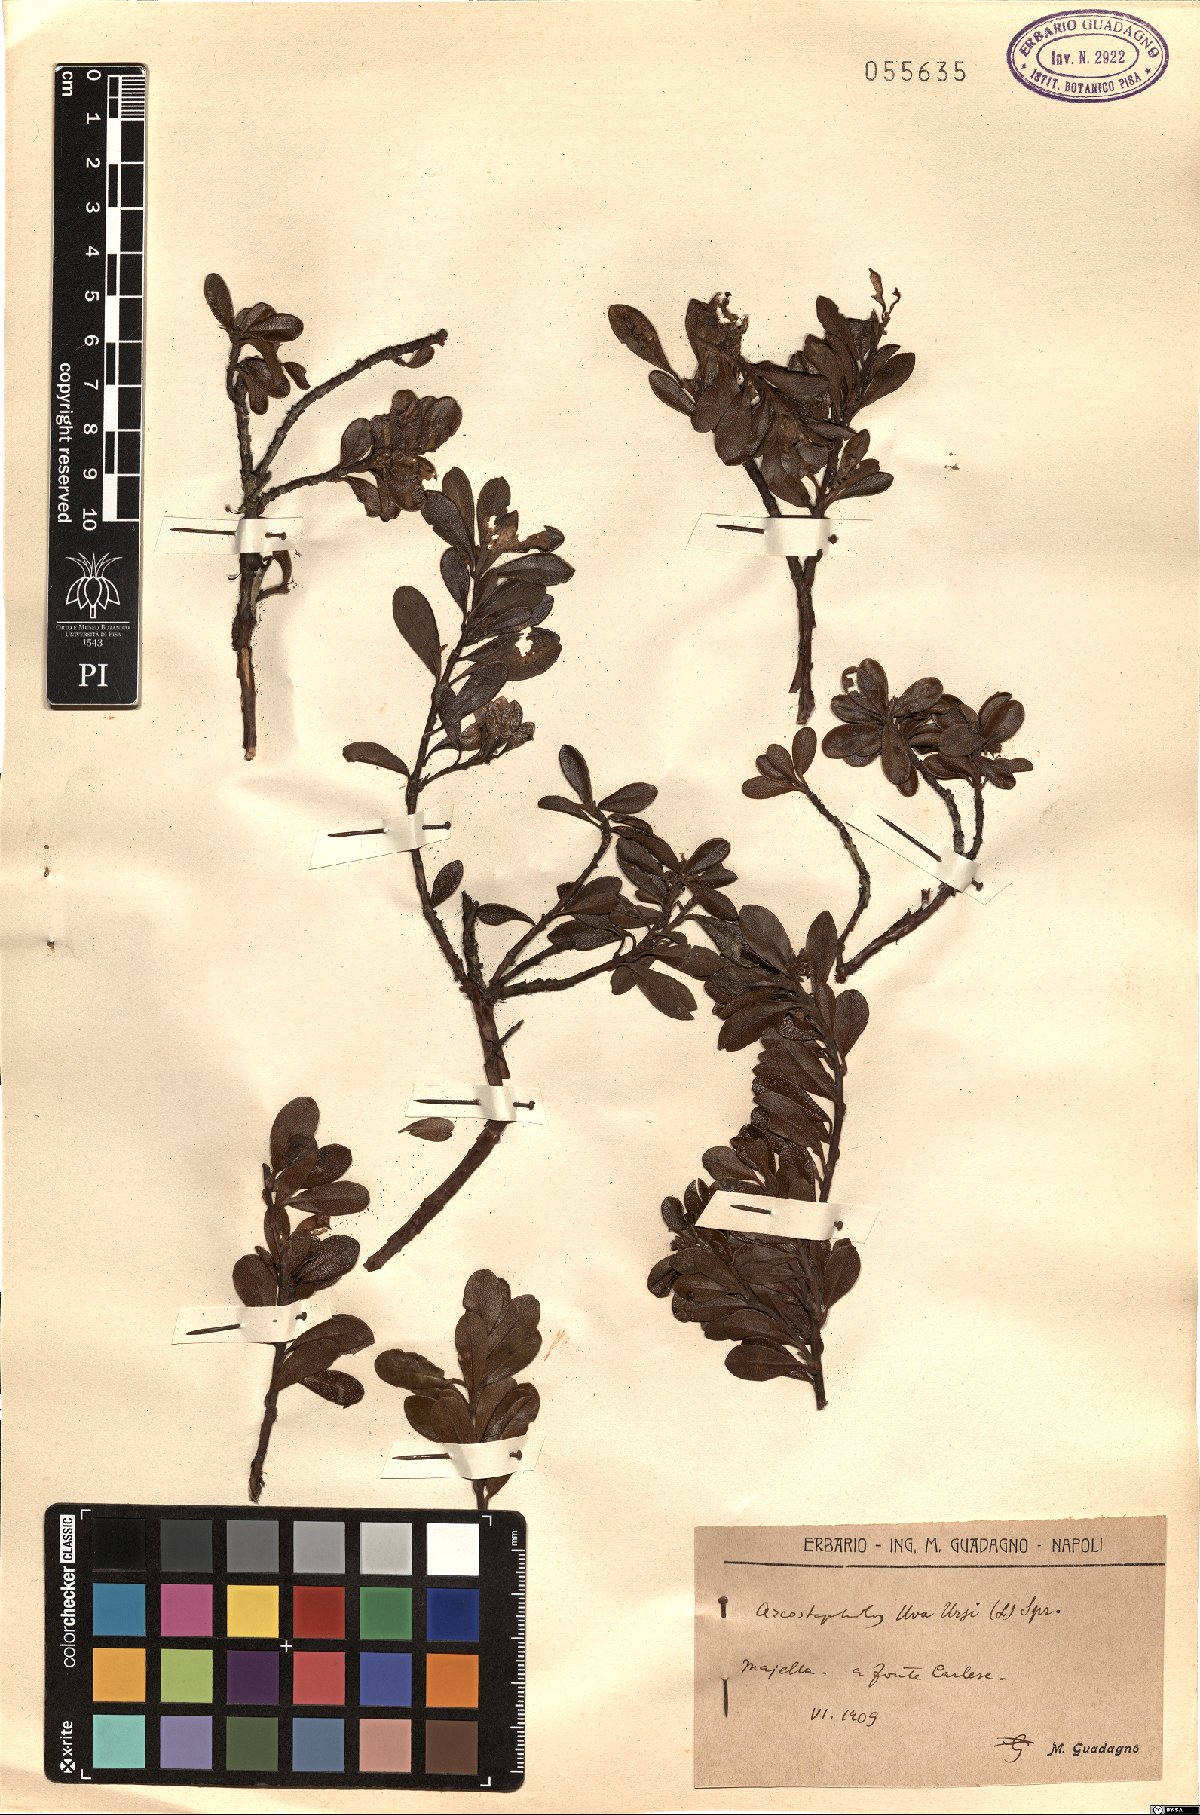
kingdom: Plantae
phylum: Tracheophyta
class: Magnoliopsida
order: Ericales
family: Ericaceae
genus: Arctostaphylos
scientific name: Arctostaphylos uva-ursi
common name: Bearberry
